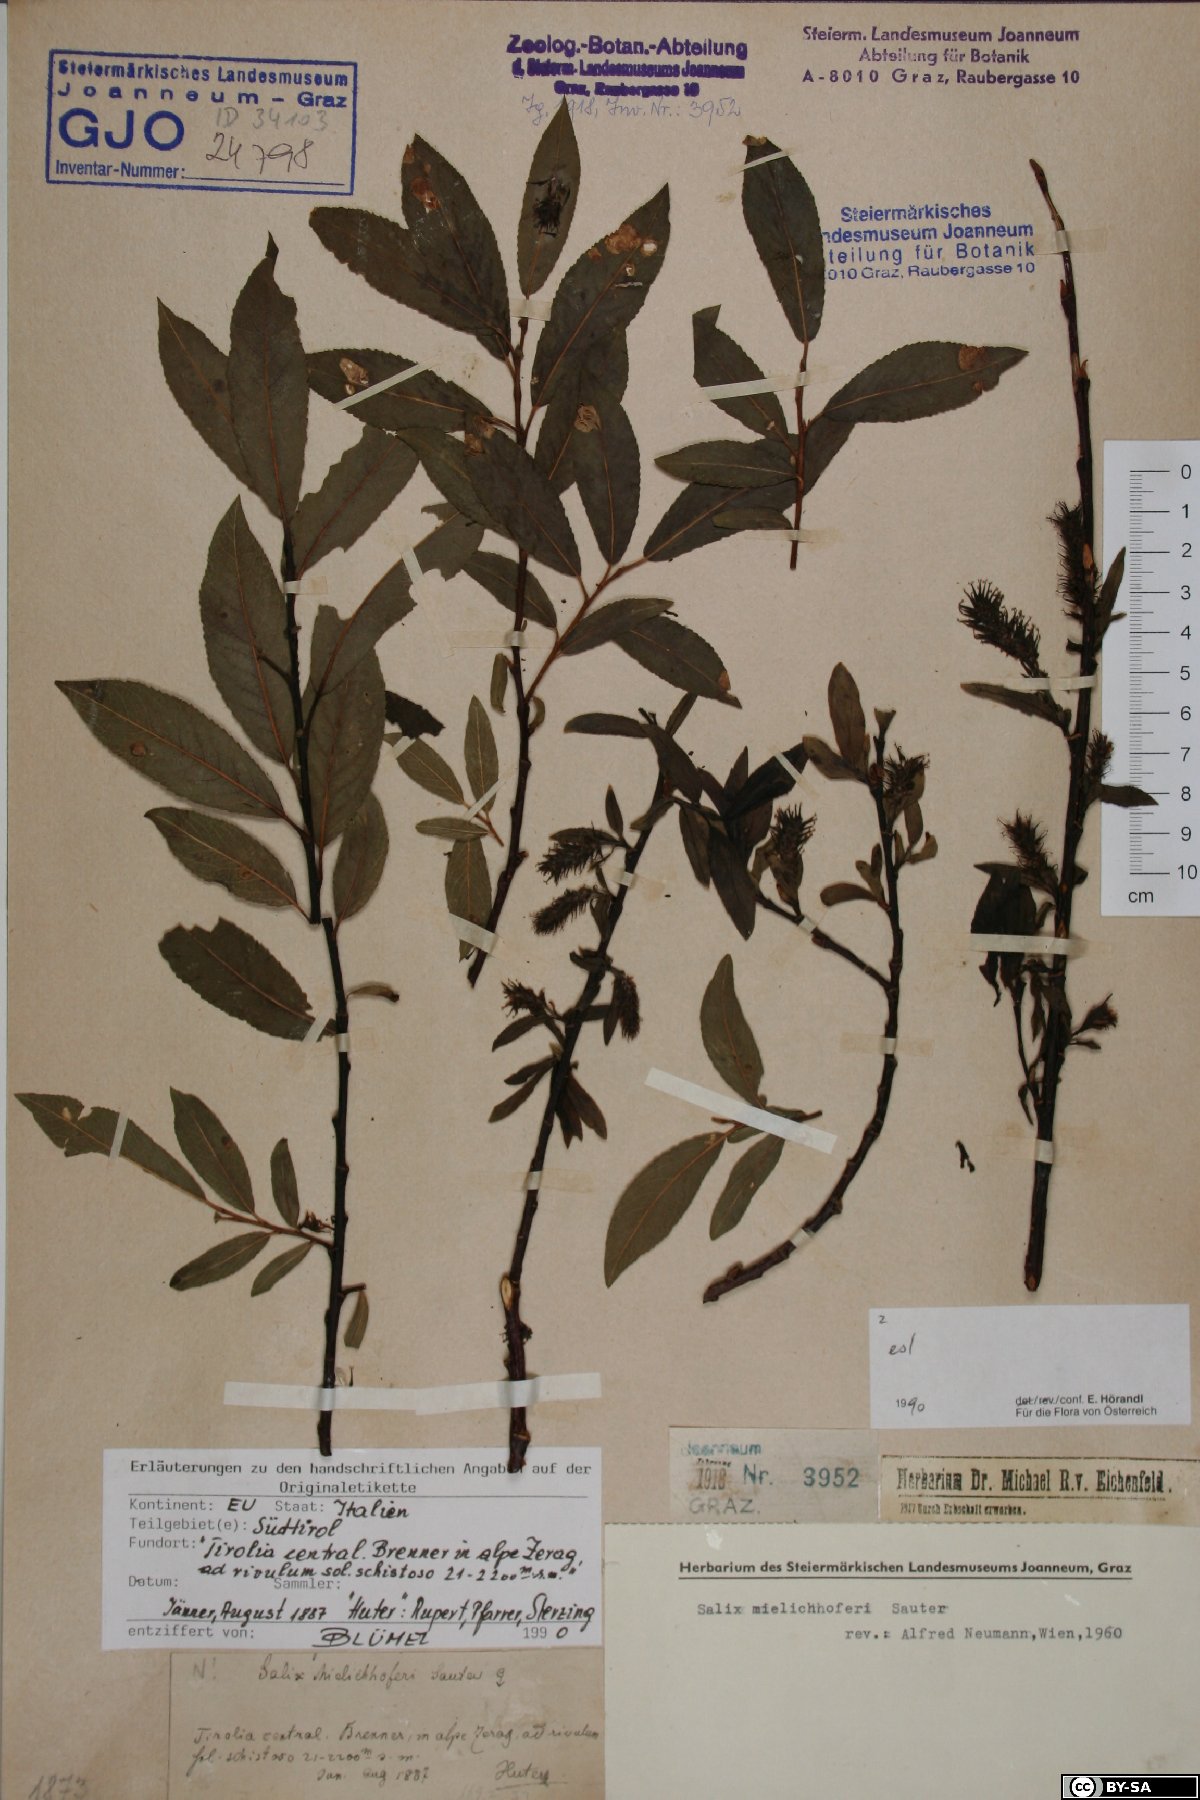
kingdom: Plantae
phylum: Tracheophyta
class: Magnoliopsida
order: Malpighiales
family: Salicaceae
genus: Salix
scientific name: Salix mielichhoferi
